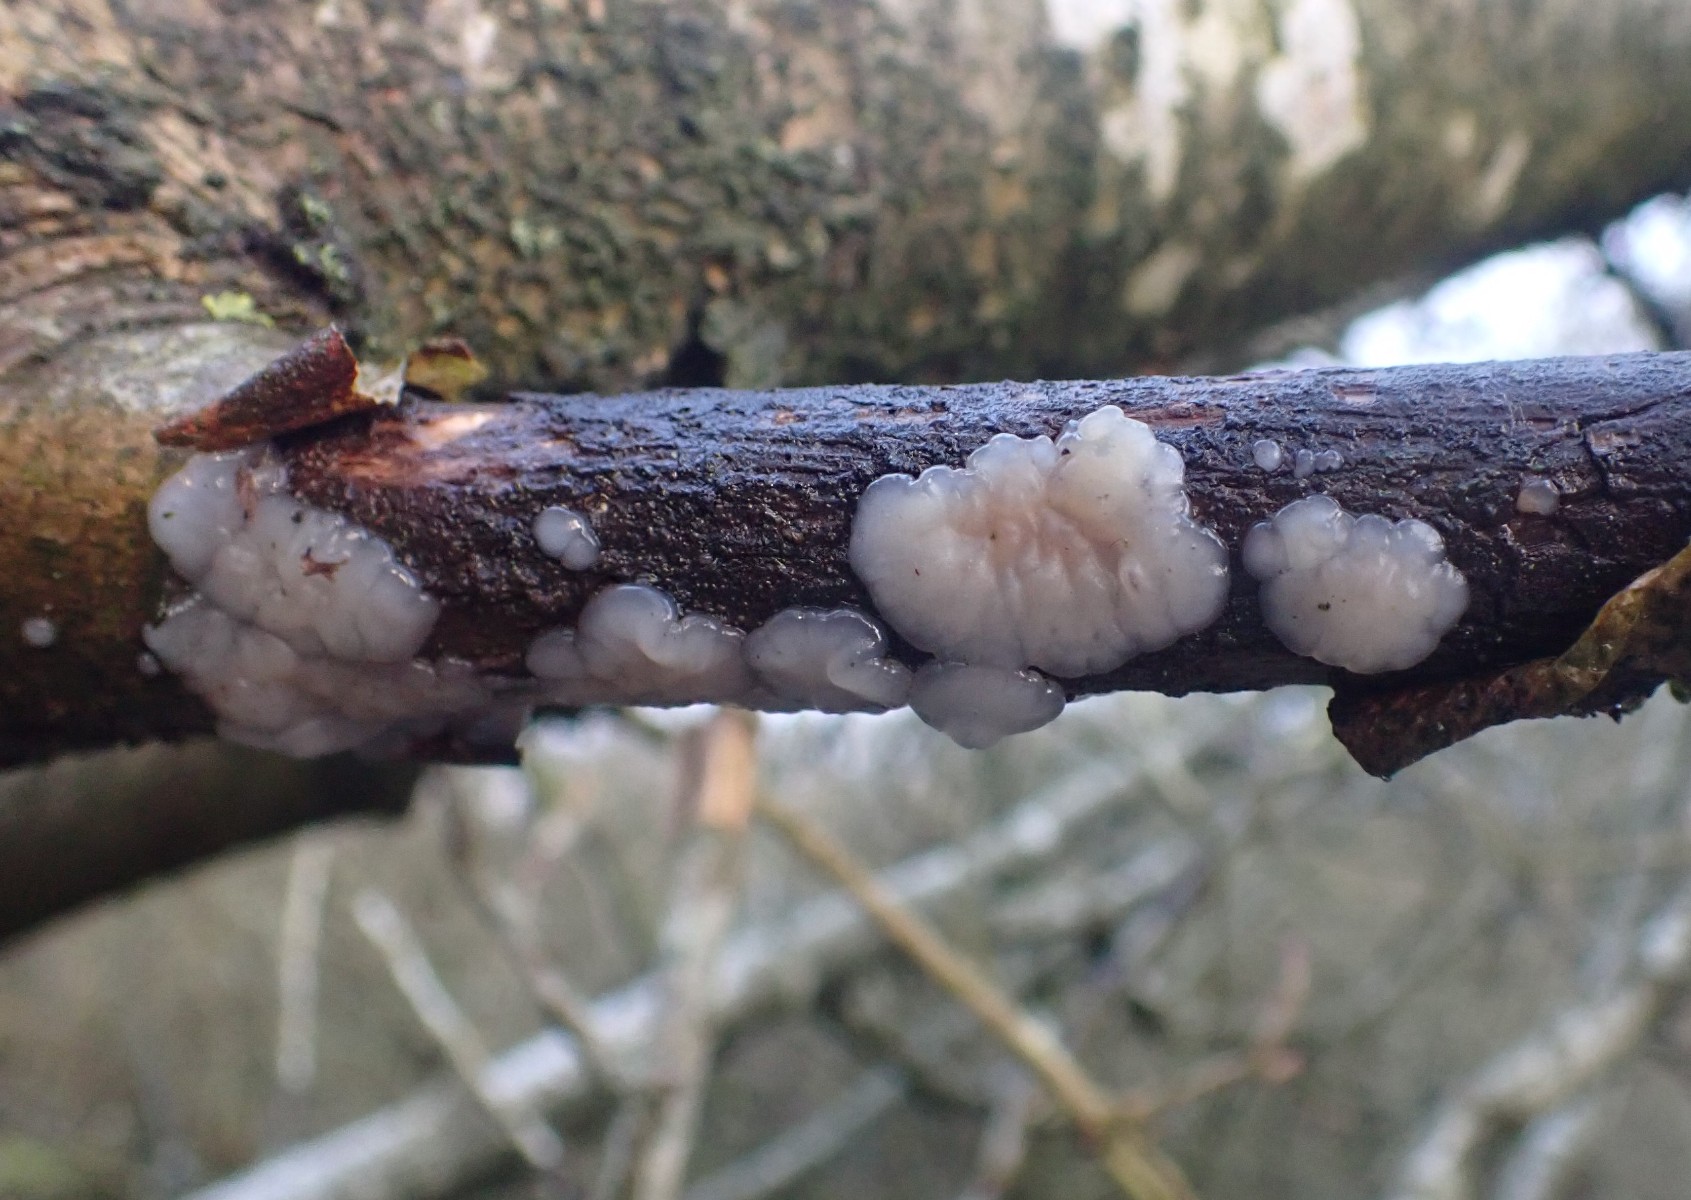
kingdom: Fungi
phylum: Basidiomycota
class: Agaricomycetes
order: Auriculariales
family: Auriculariaceae
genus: Exidia
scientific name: Exidia thuretiana
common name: hvidlig bævretop
